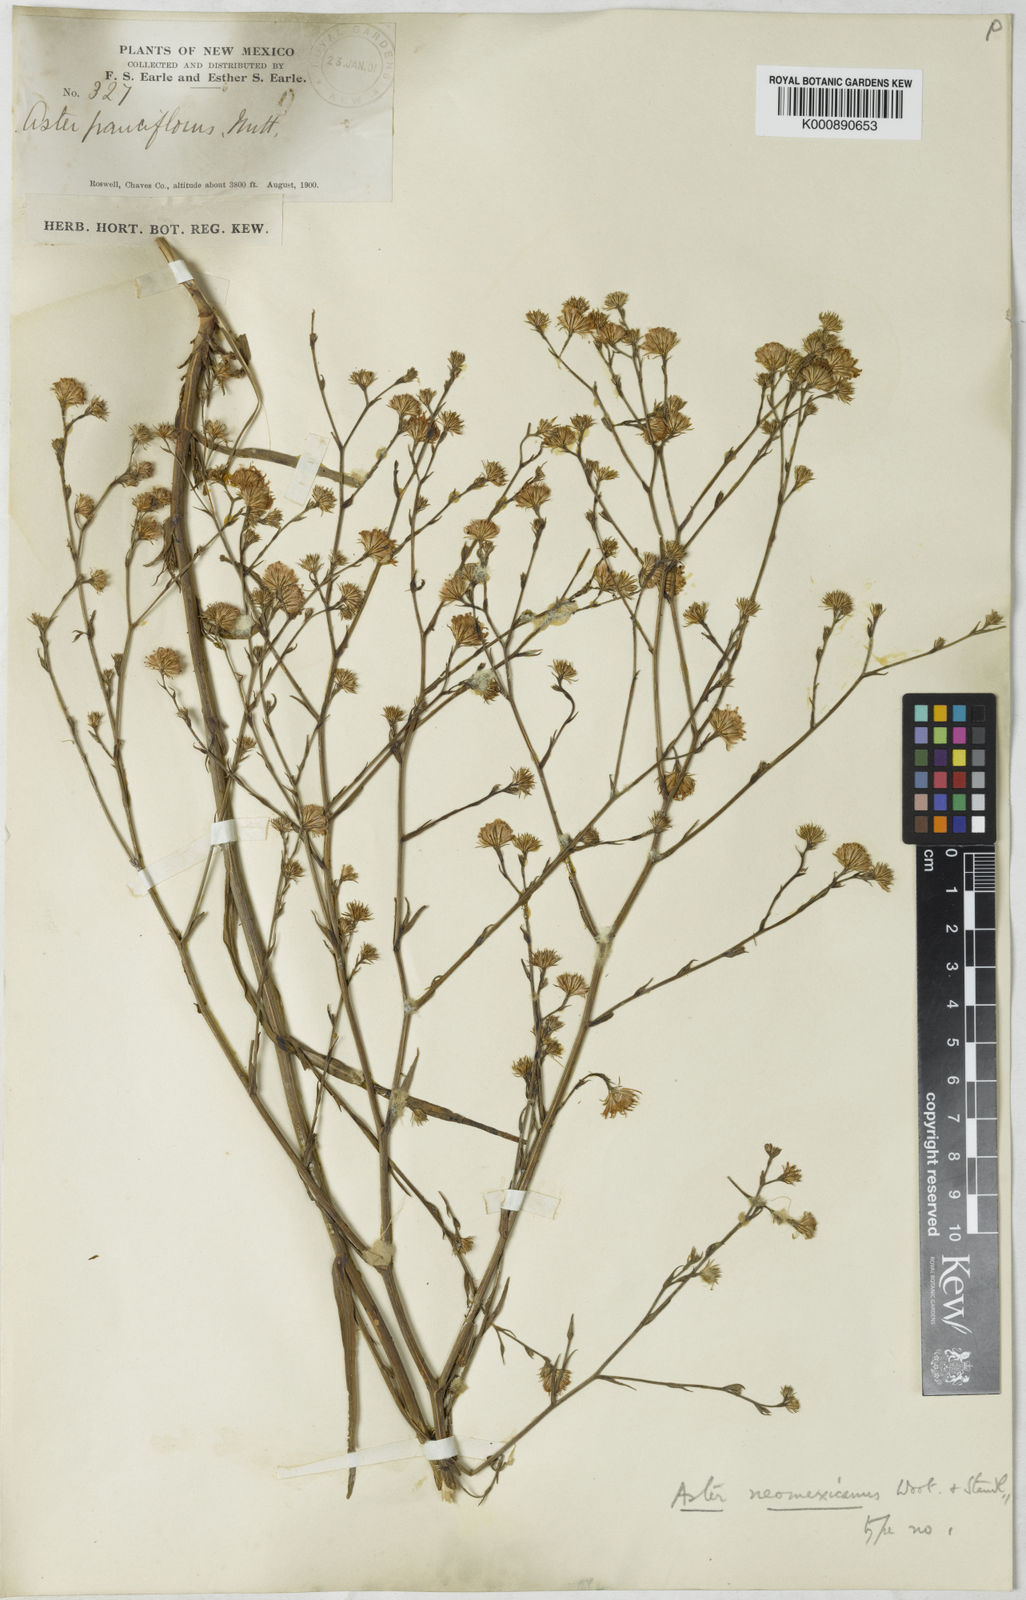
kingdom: Plantae
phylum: Tracheophyta
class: Magnoliopsida
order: Asterales
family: Asteraceae
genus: Symphyotrichum
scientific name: Symphyotrichum expansum
